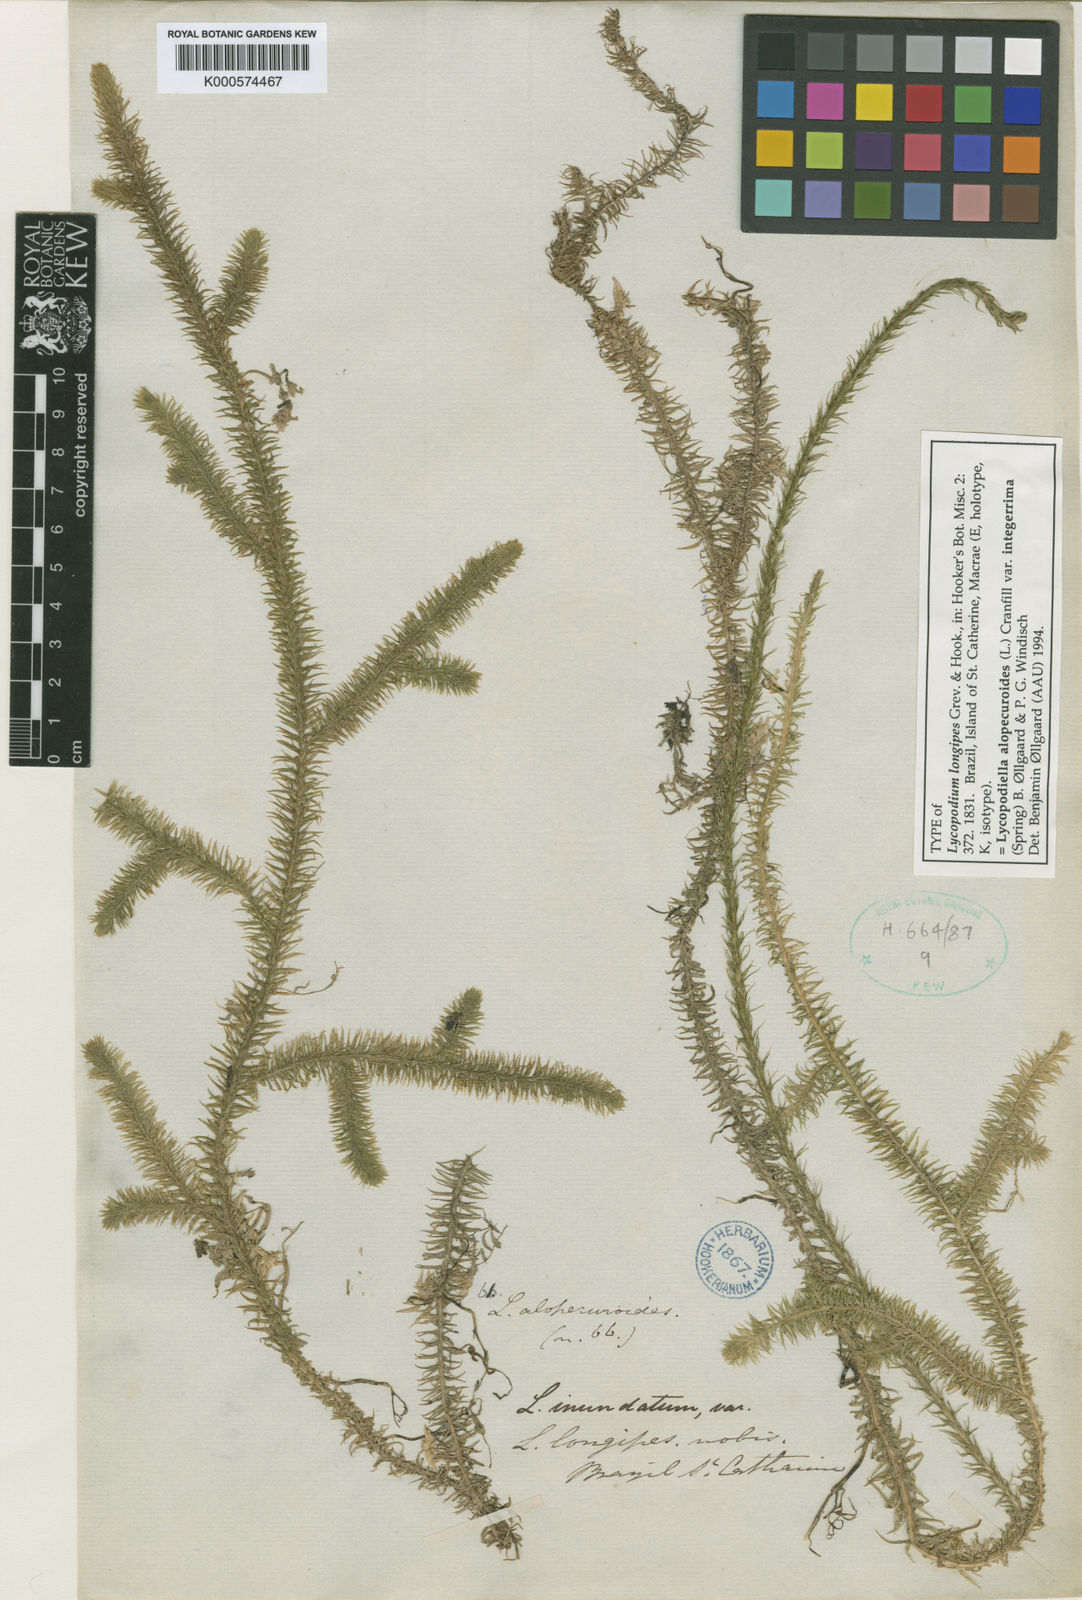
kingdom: Plantae
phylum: Tracheophyta
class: Lycopodiopsida
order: Lycopodiales
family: Lycopodiaceae
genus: Lycopodiella
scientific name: Lycopodiella longipes
